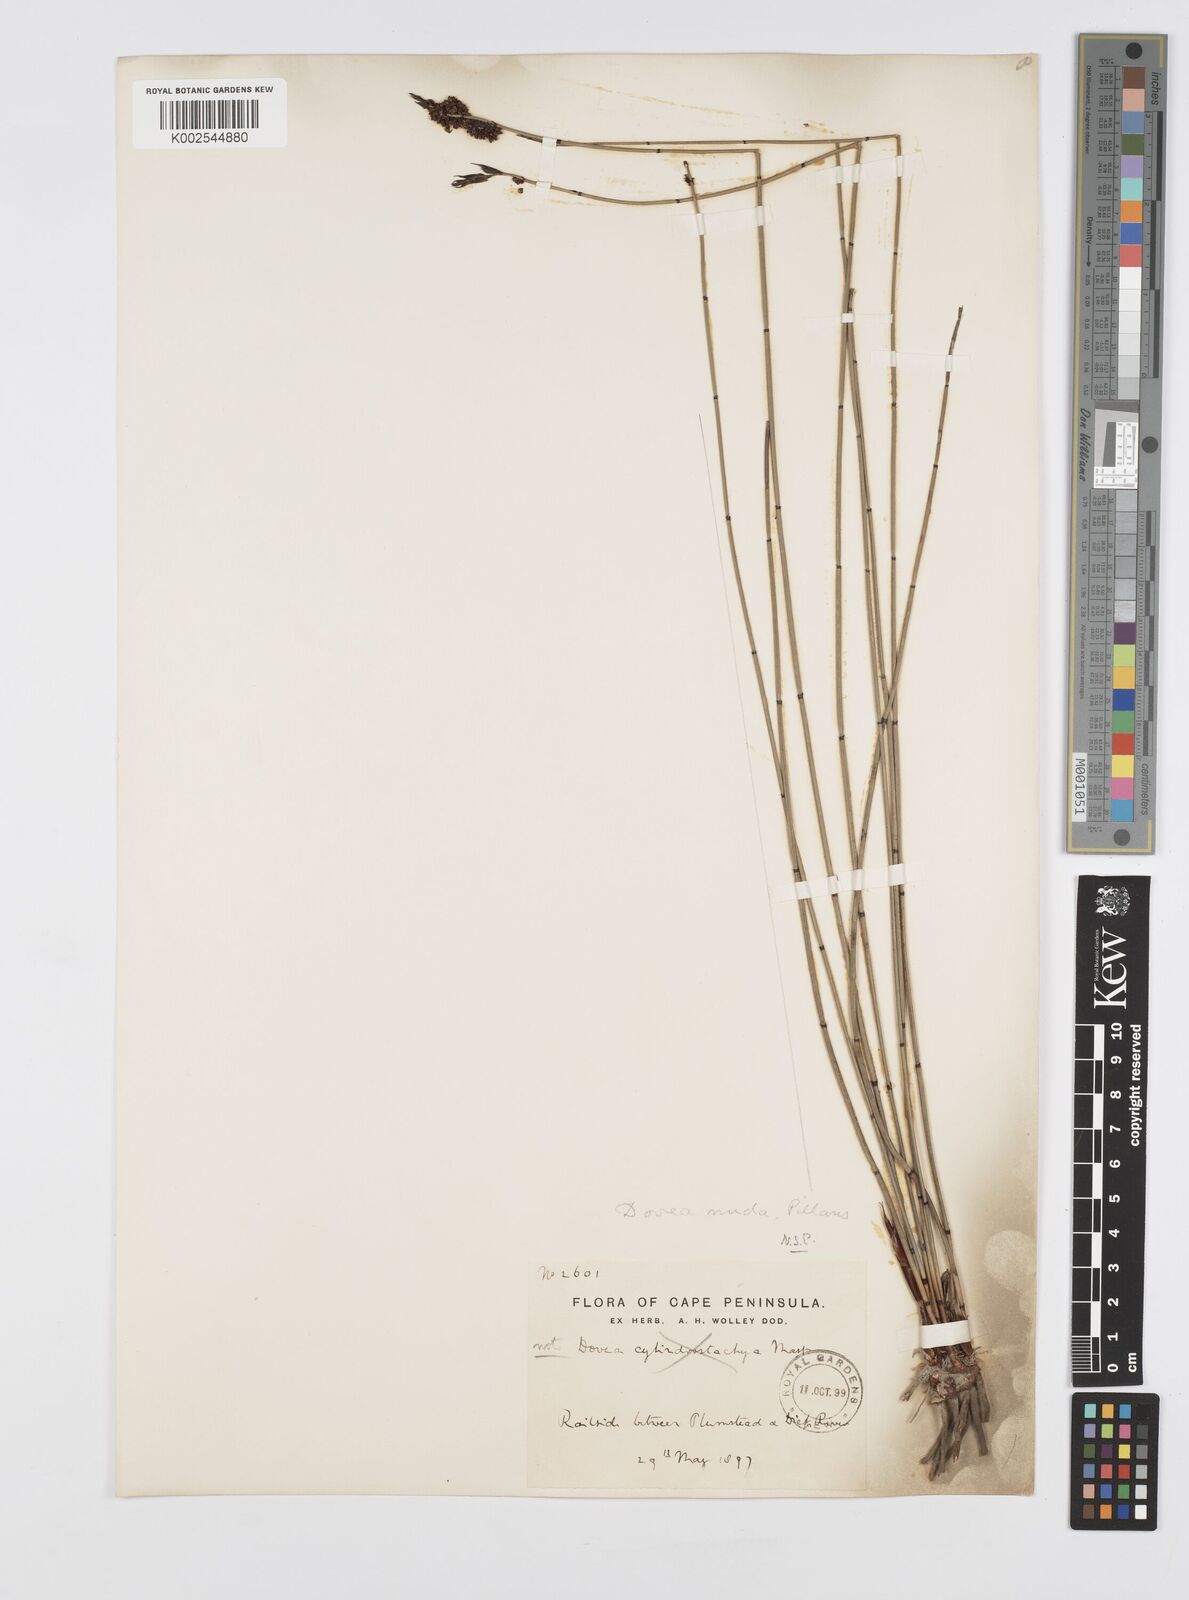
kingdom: Plantae
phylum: Tracheophyta
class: Liliopsida
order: Poales
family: Restionaceae
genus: Elegia
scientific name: Elegia nuda
